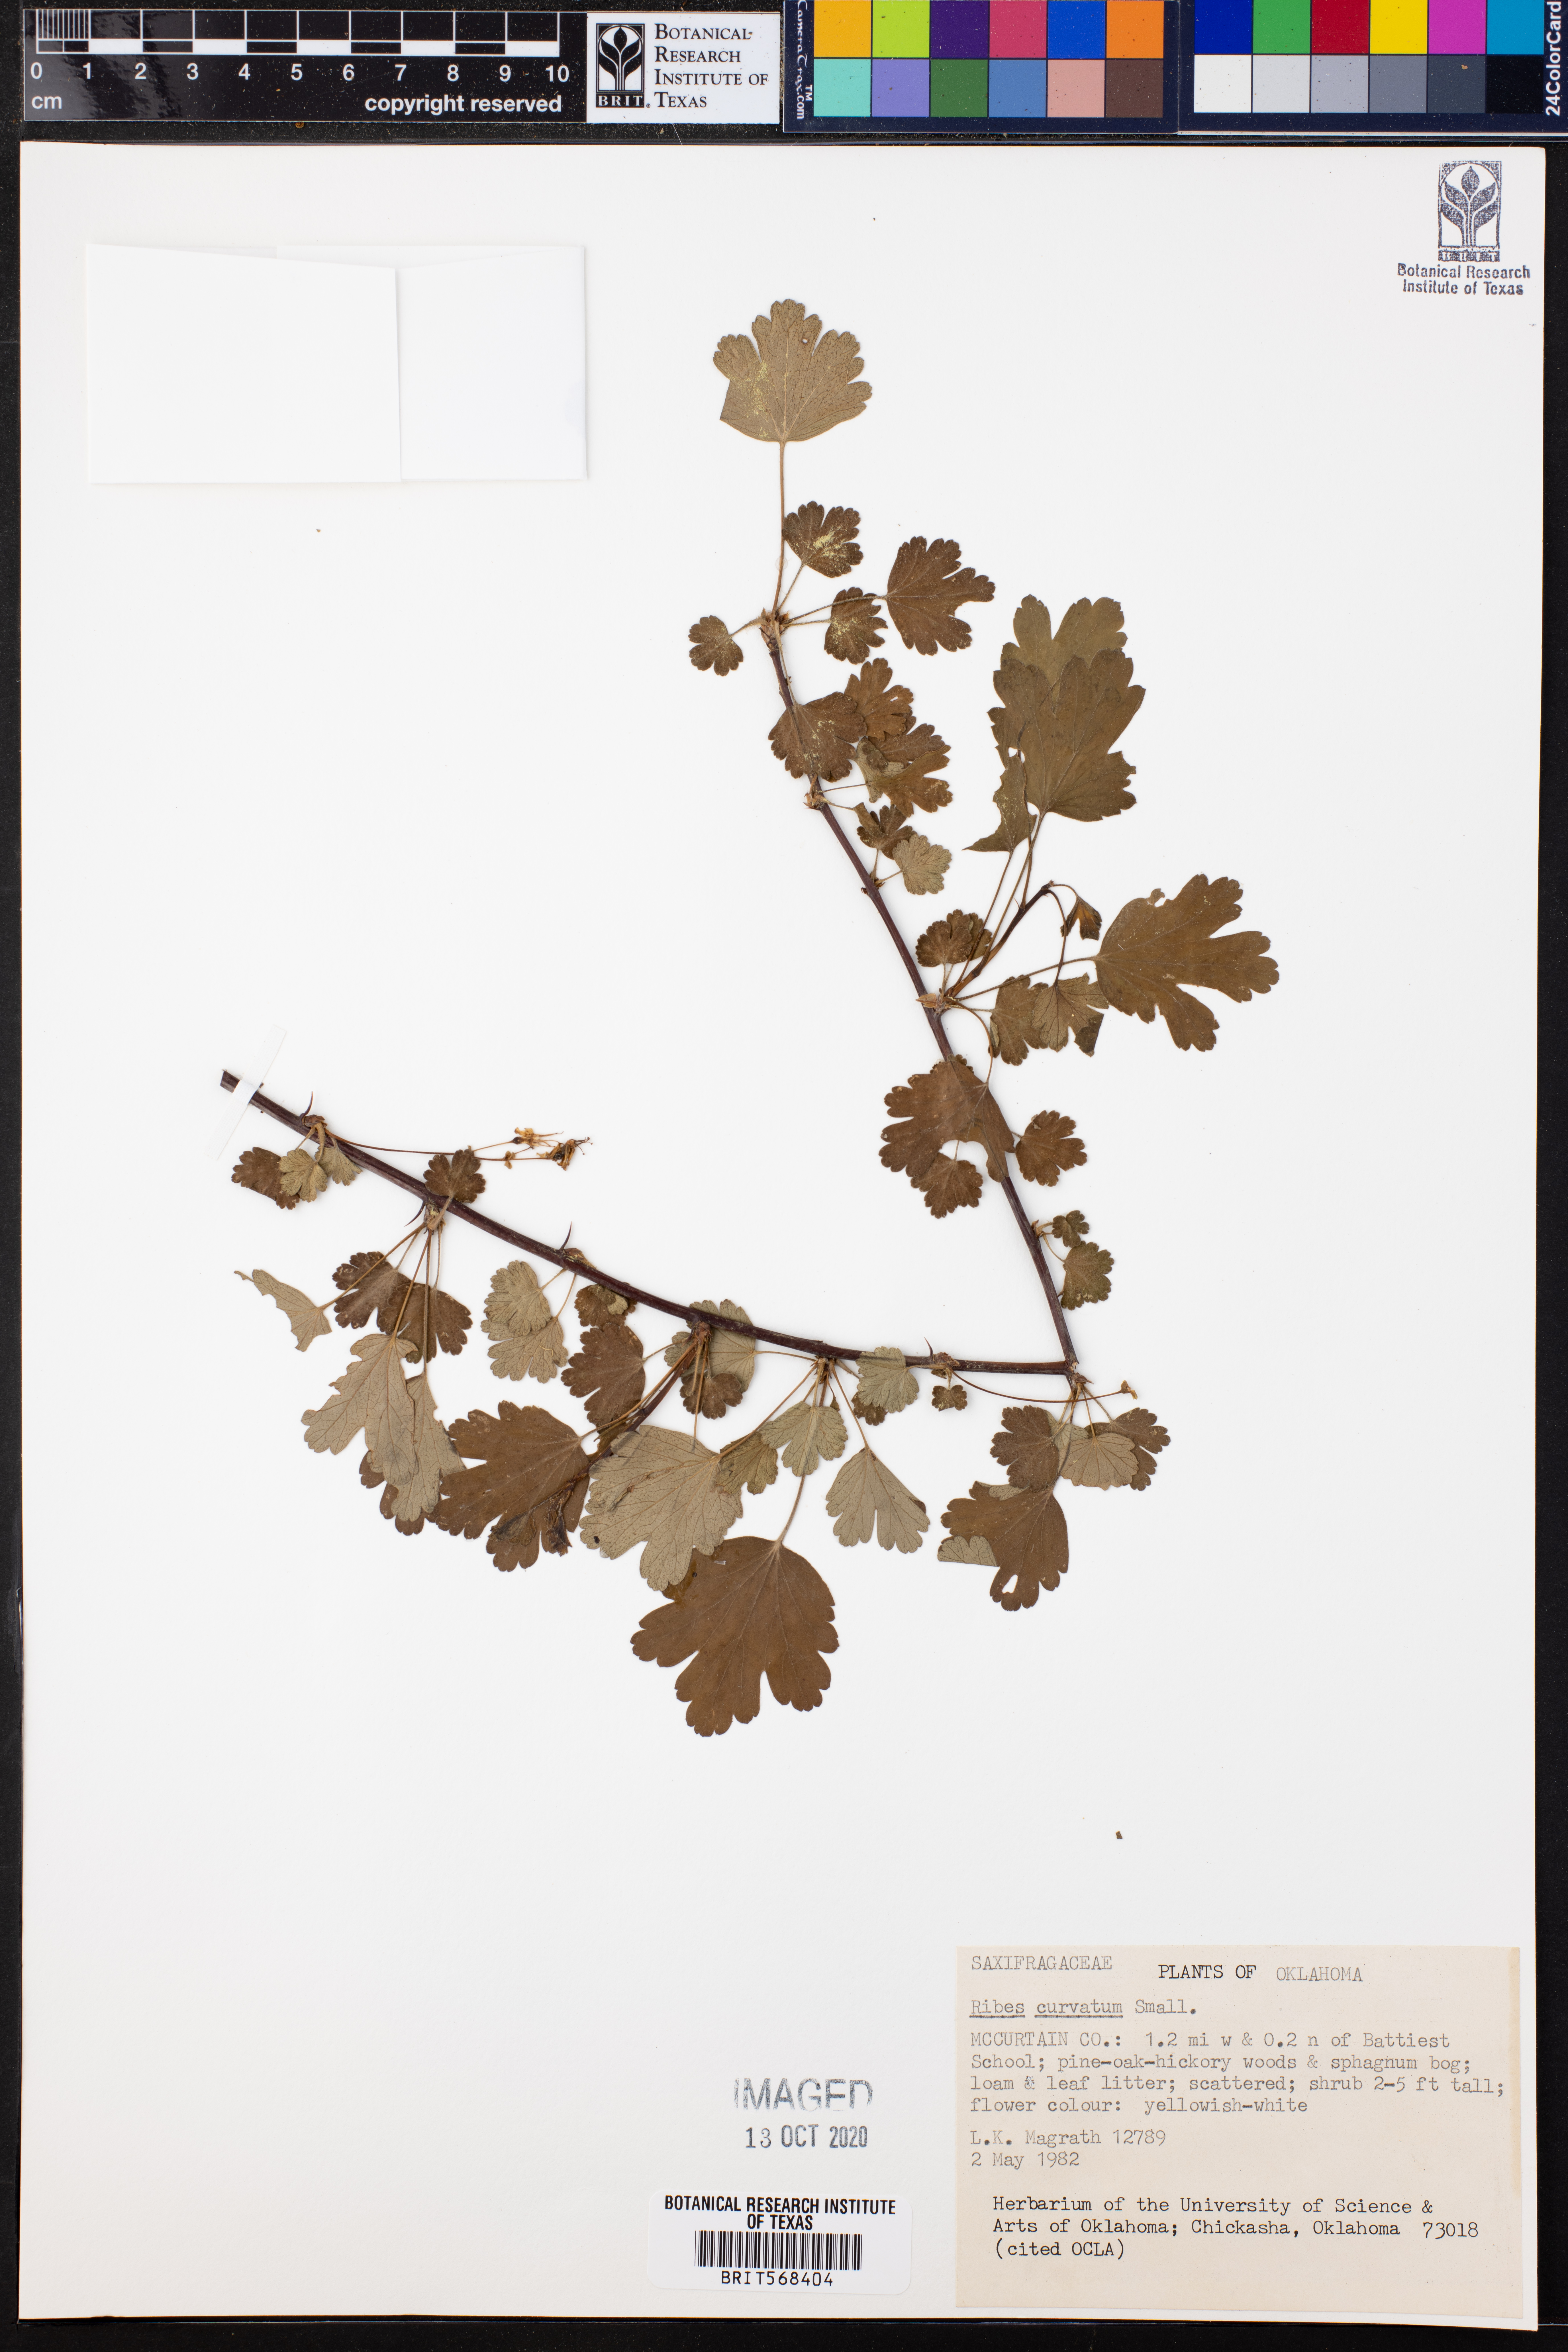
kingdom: Plantae
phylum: Tracheophyta
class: Magnoliopsida
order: Saxifragales
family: Grossulariaceae
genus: Ribes
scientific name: Ribes curvatum
